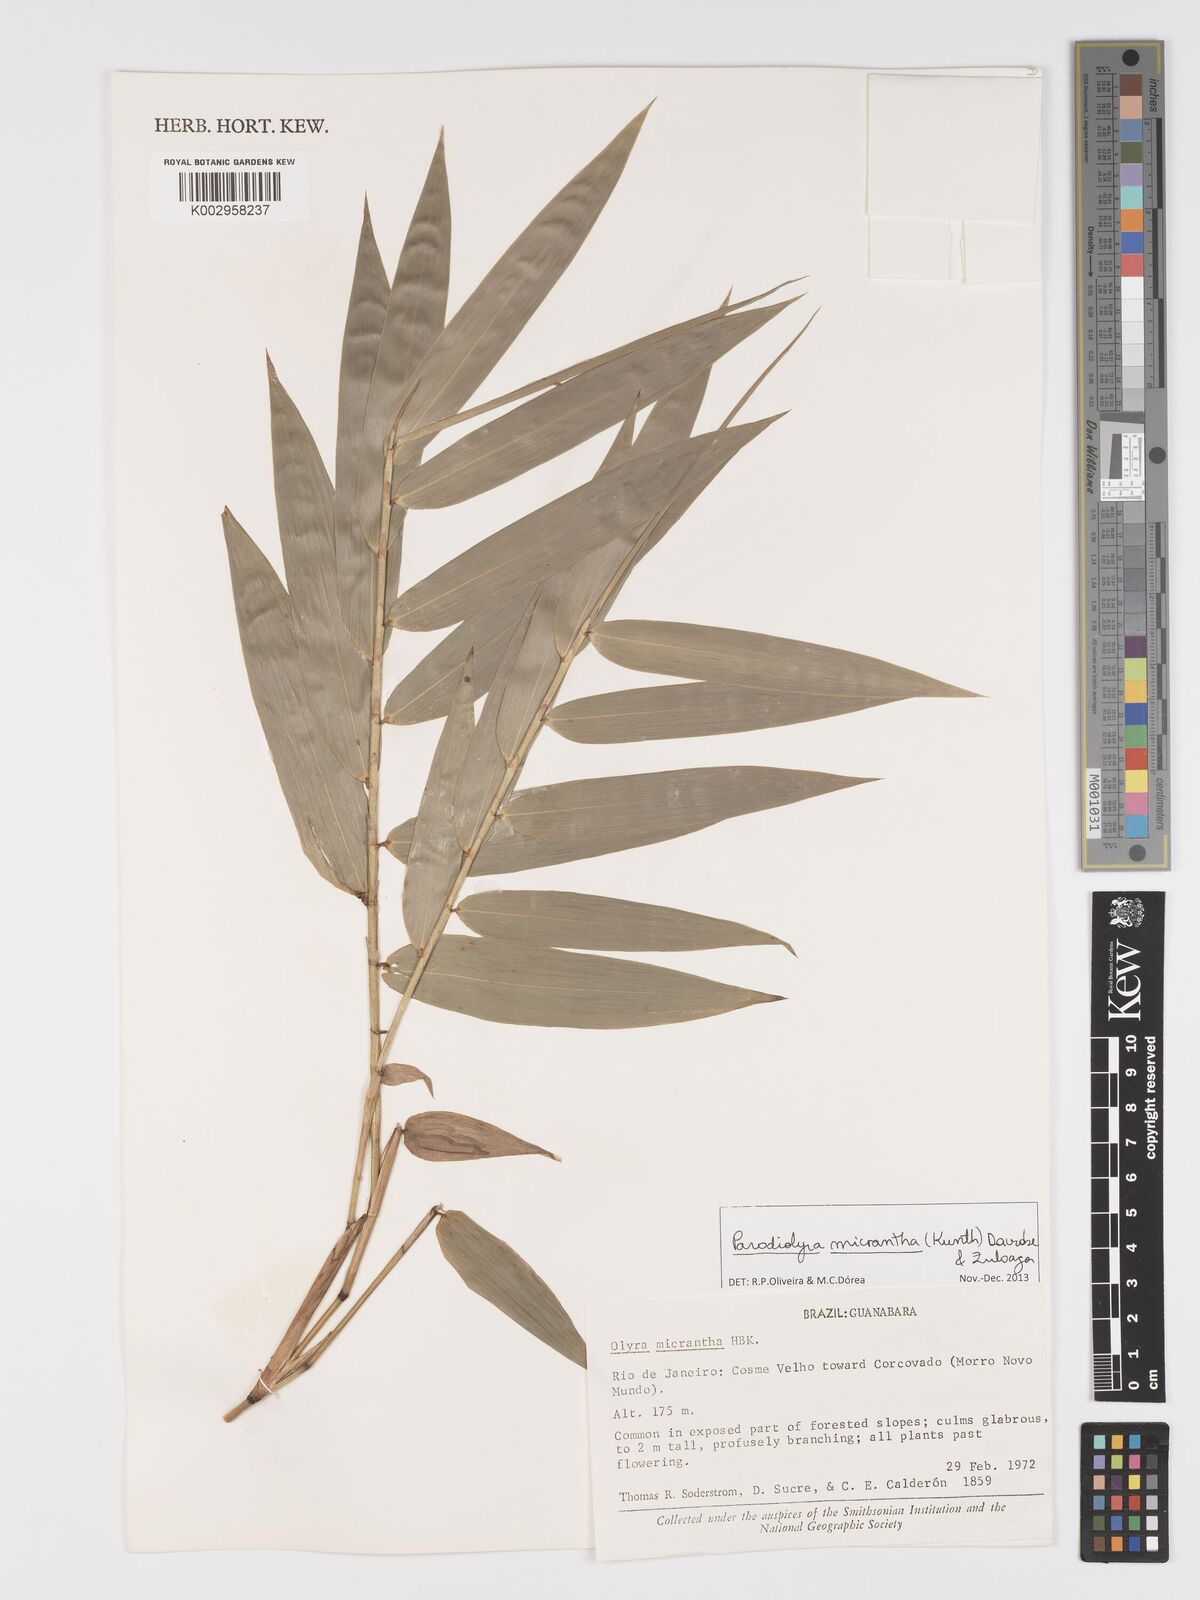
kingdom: Plantae
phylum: Tracheophyta
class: Liliopsida
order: Poales
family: Poaceae
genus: Taquara
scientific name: Taquara micrantha
